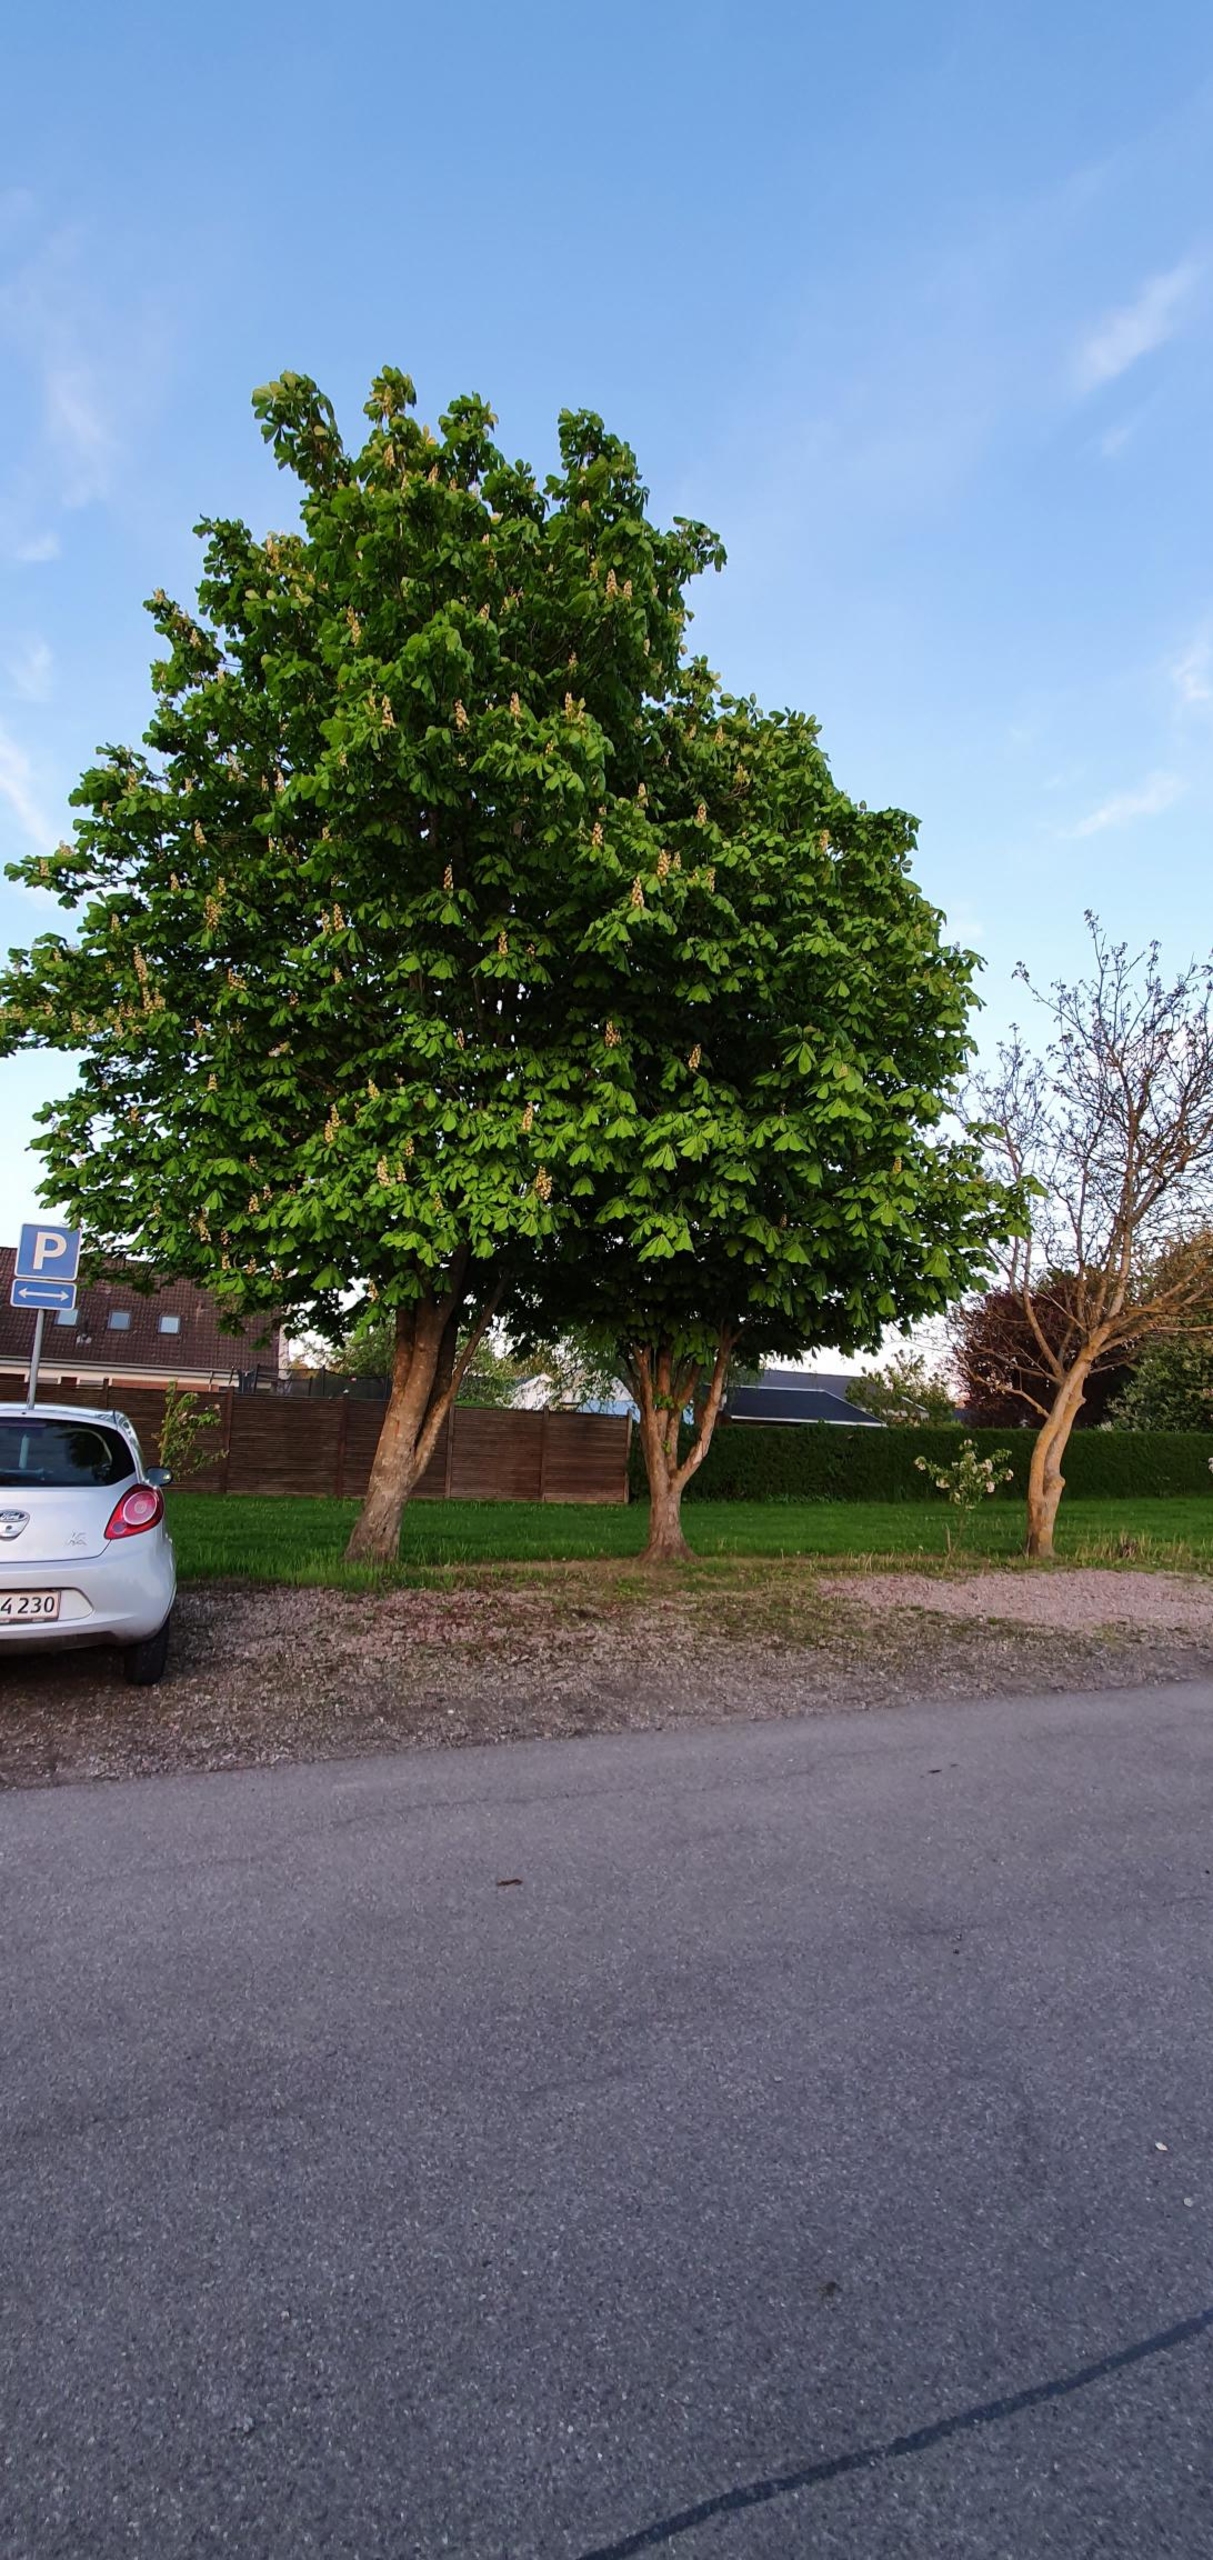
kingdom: Plantae
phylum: Tracheophyta
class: Magnoliopsida
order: Sapindales
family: Sapindaceae
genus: Aesculus
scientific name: Aesculus hippocastanum
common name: Hestekastanie
